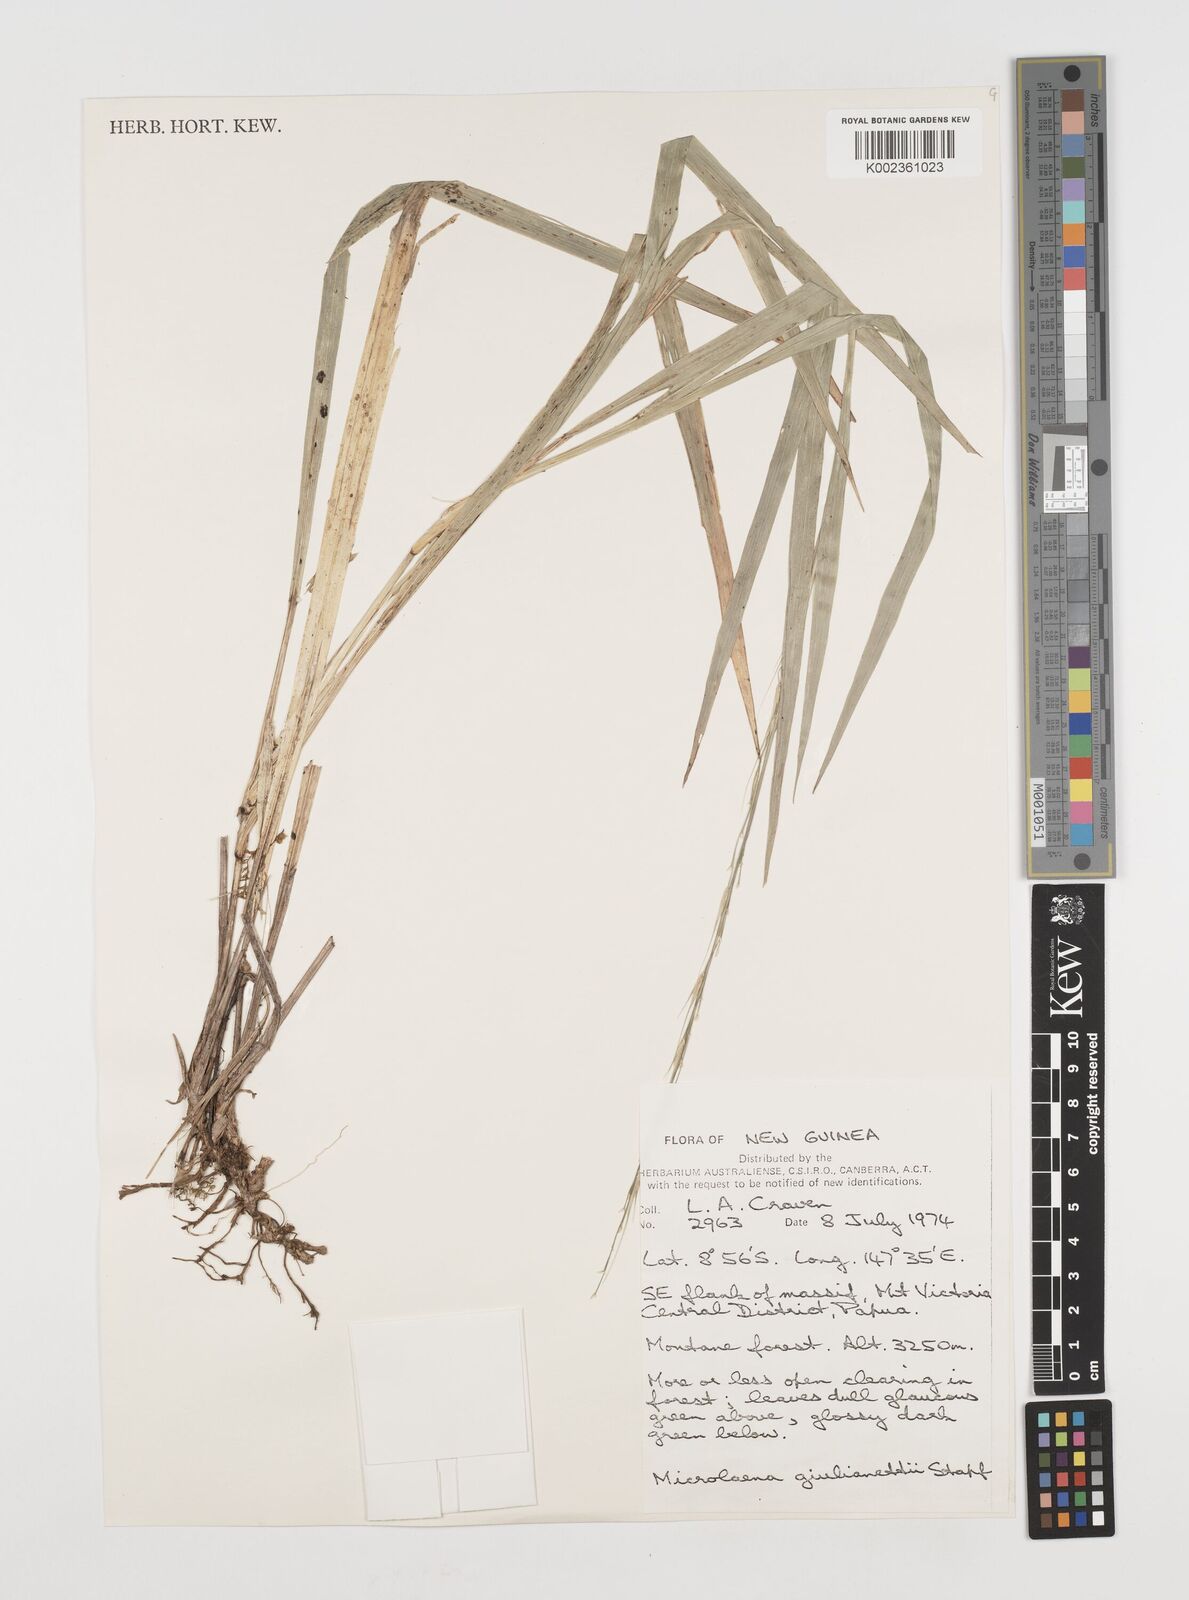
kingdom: Plantae
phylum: Tracheophyta
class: Liliopsida
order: Poales
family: Poaceae
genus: Ehrharta
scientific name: Ehrharta diplax
